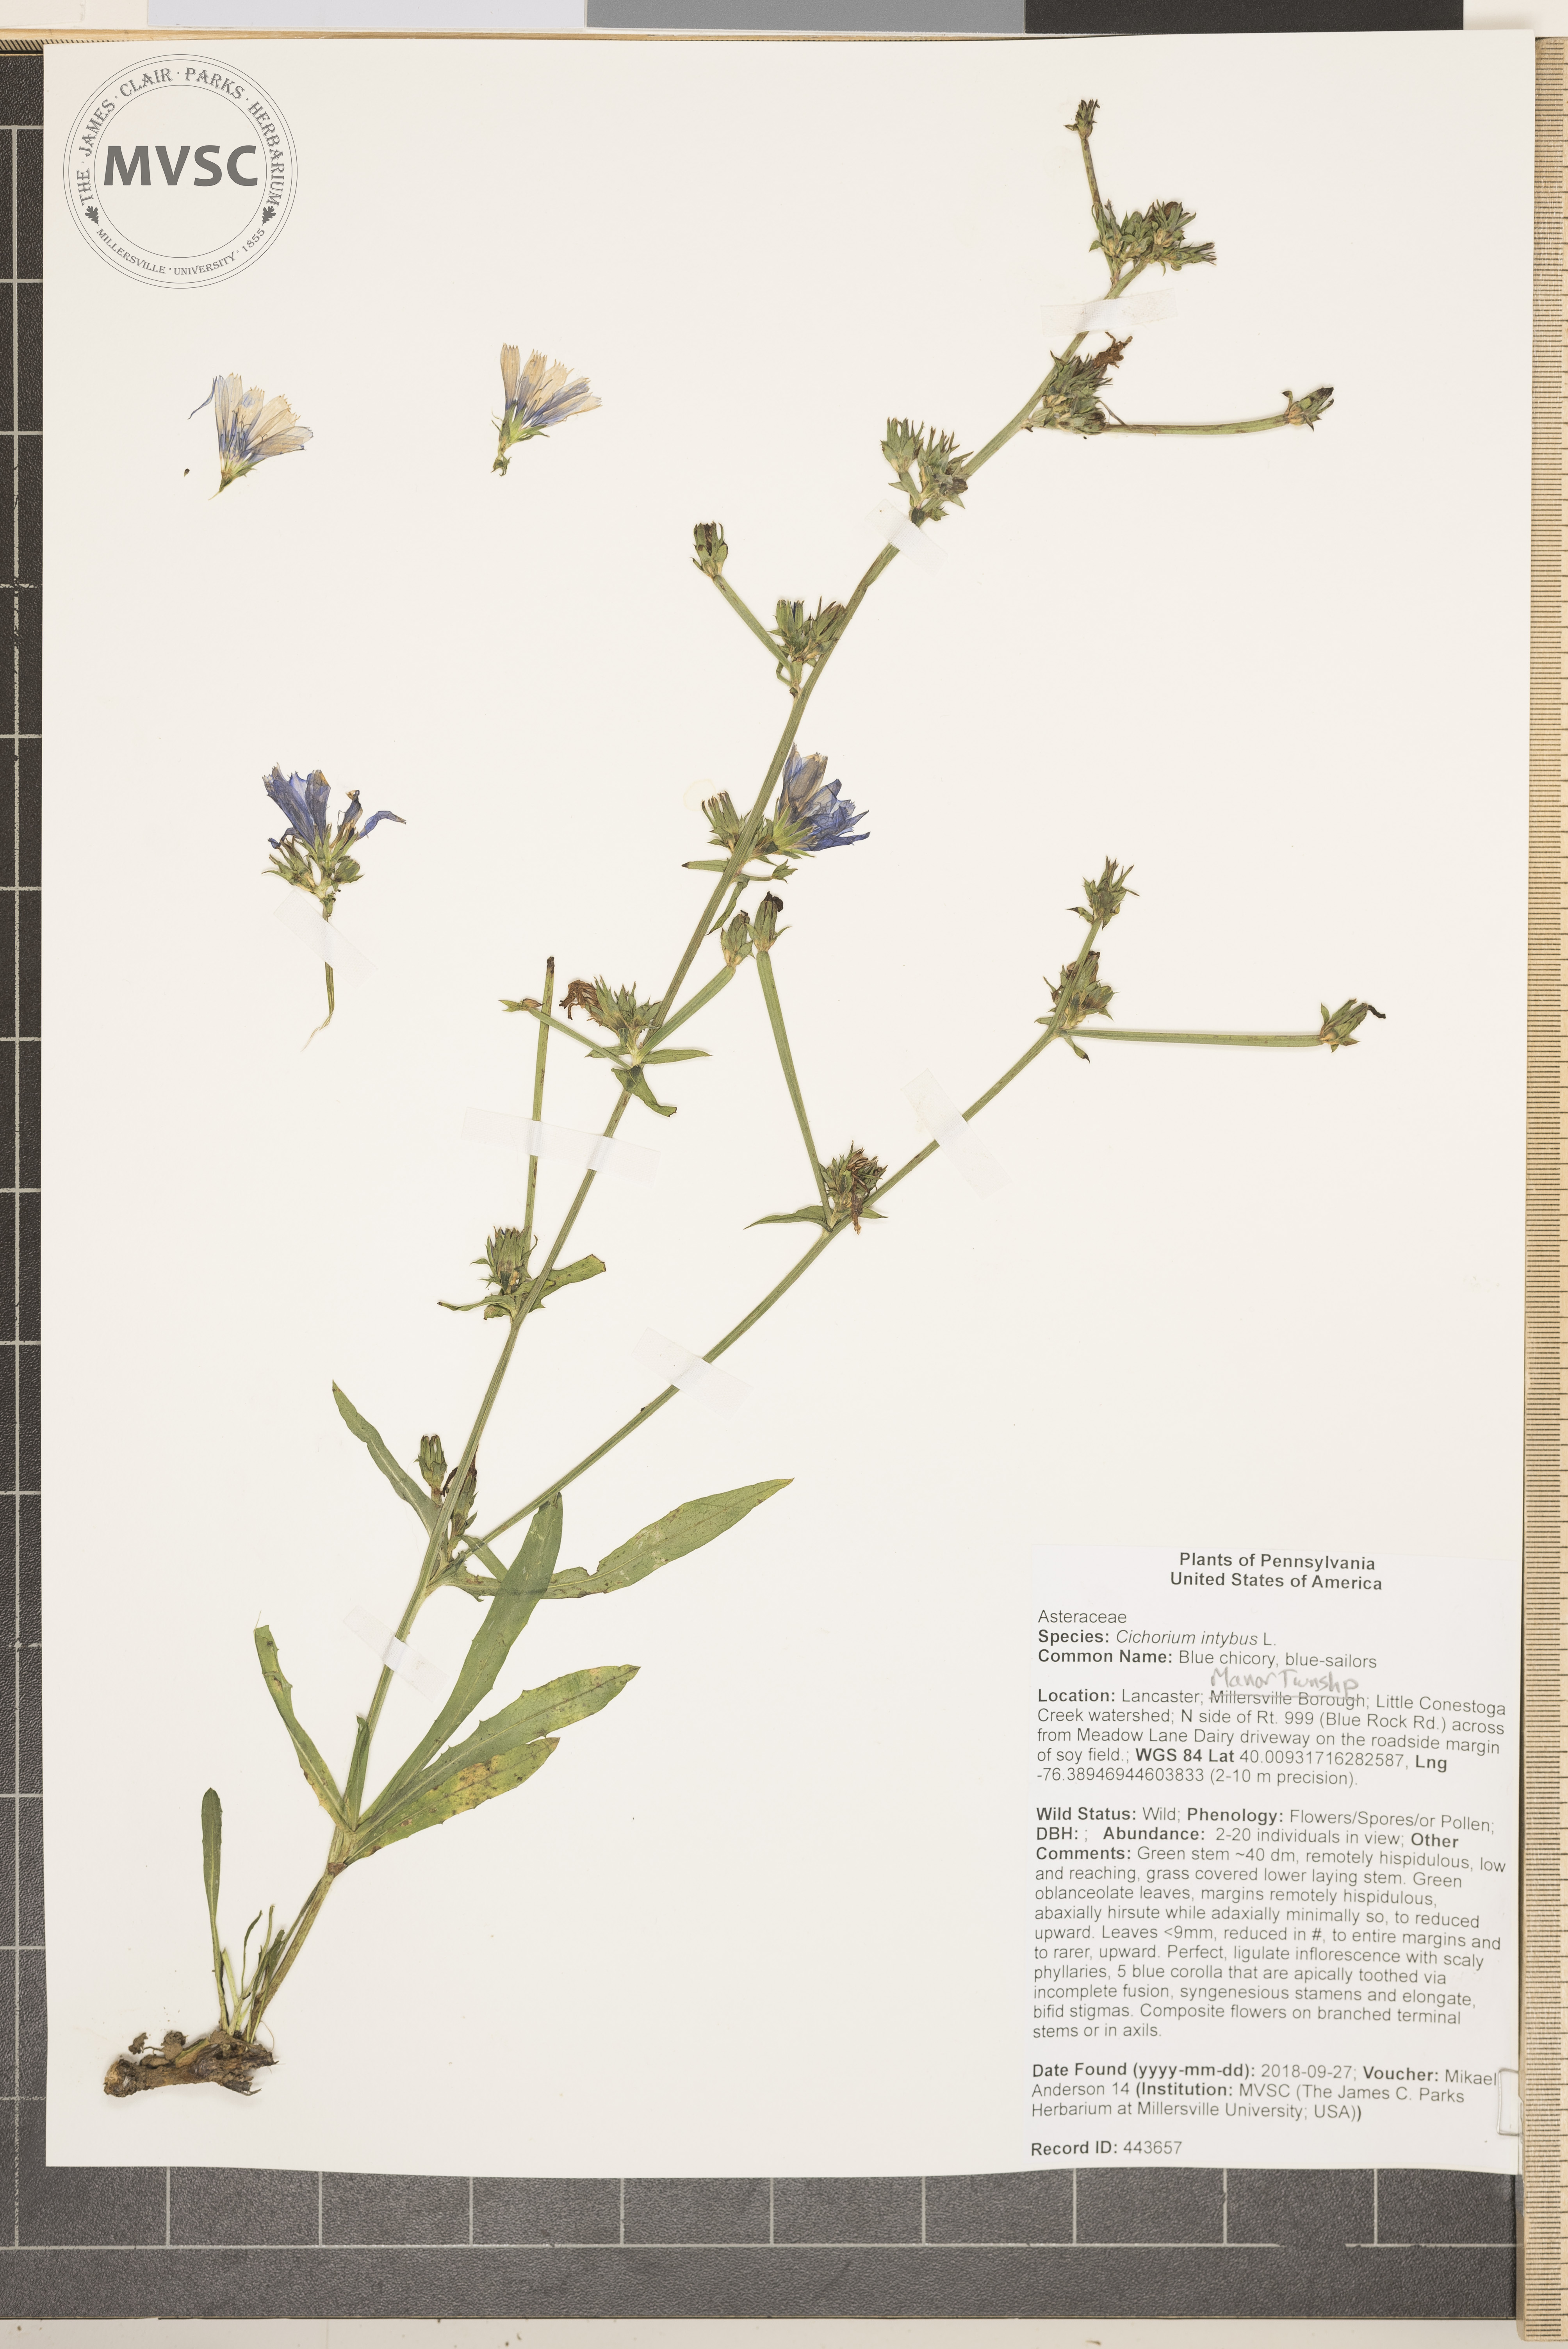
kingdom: Plantae
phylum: Tracheophyta
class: Magnoliopsida
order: Asterales
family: Asteraceae
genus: Cichorium
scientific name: Cichorium intybus
